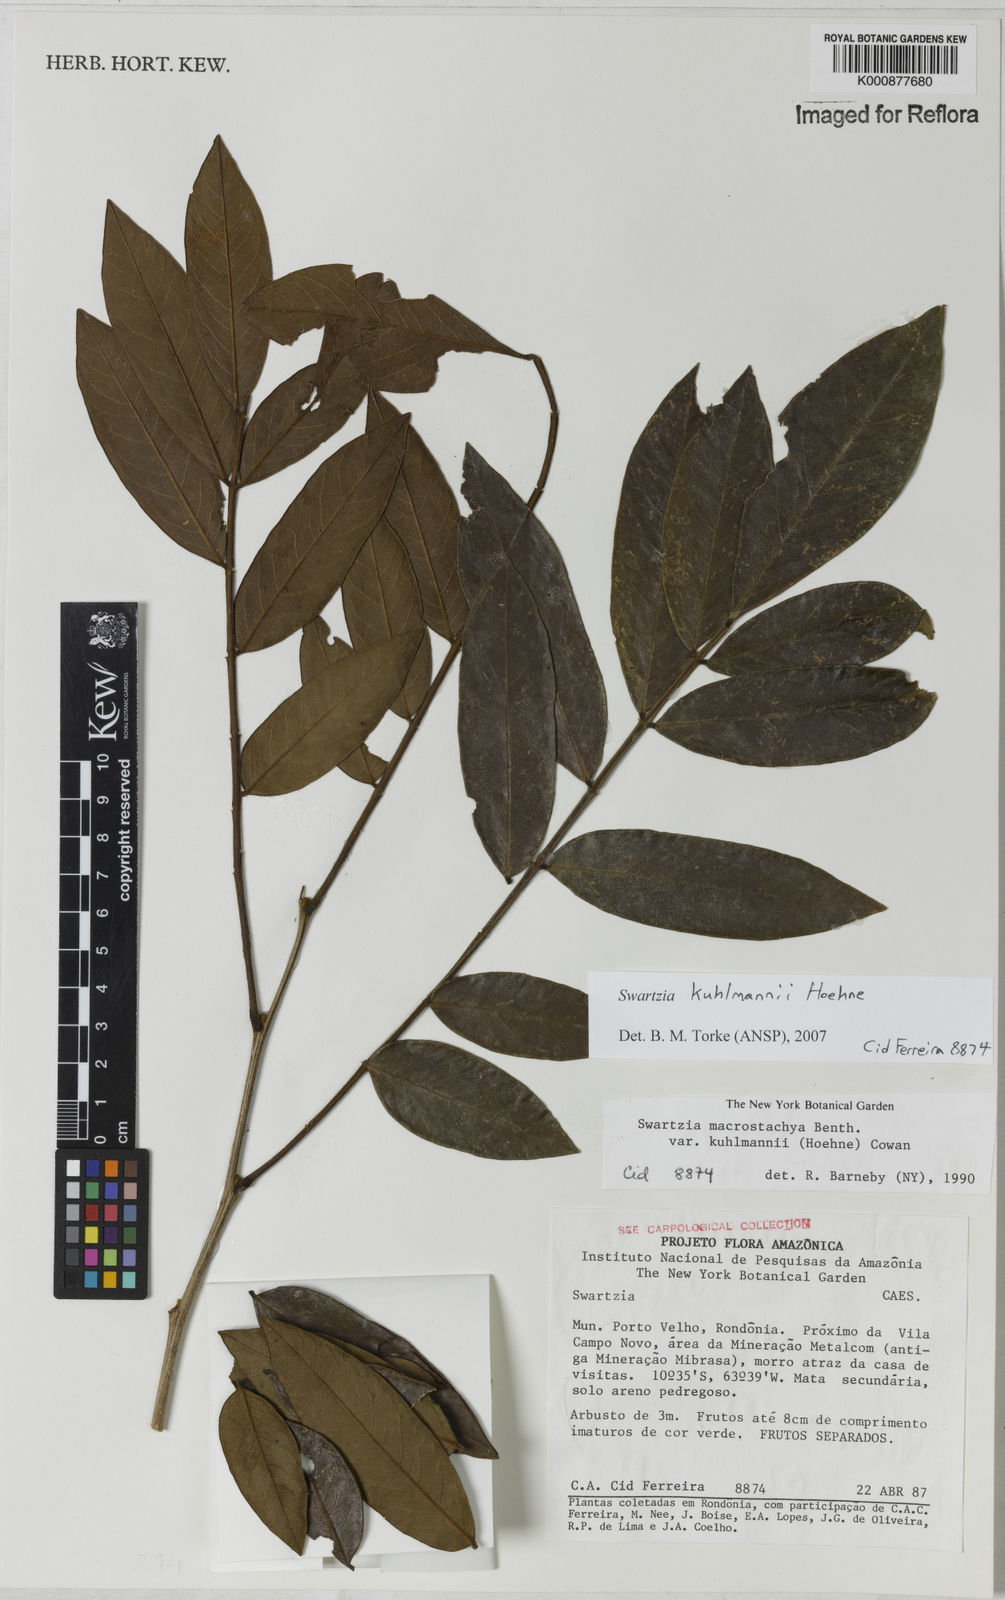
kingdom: Plantae
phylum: Tracheophyta
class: Magnoliopsida
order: Fabales
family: Fabaceae
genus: Swartzia
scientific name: Swartzia kuhlmannii
